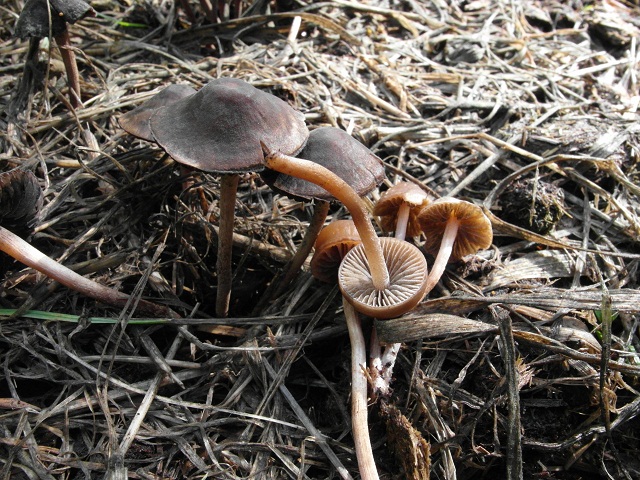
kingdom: Fungi
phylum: Basidiomycota
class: Agaricomycetes
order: Agaricales
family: Bolbitiaceae
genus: Panaeolus
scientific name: Panaeolus olivaceus
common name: lysstokket glanshat
